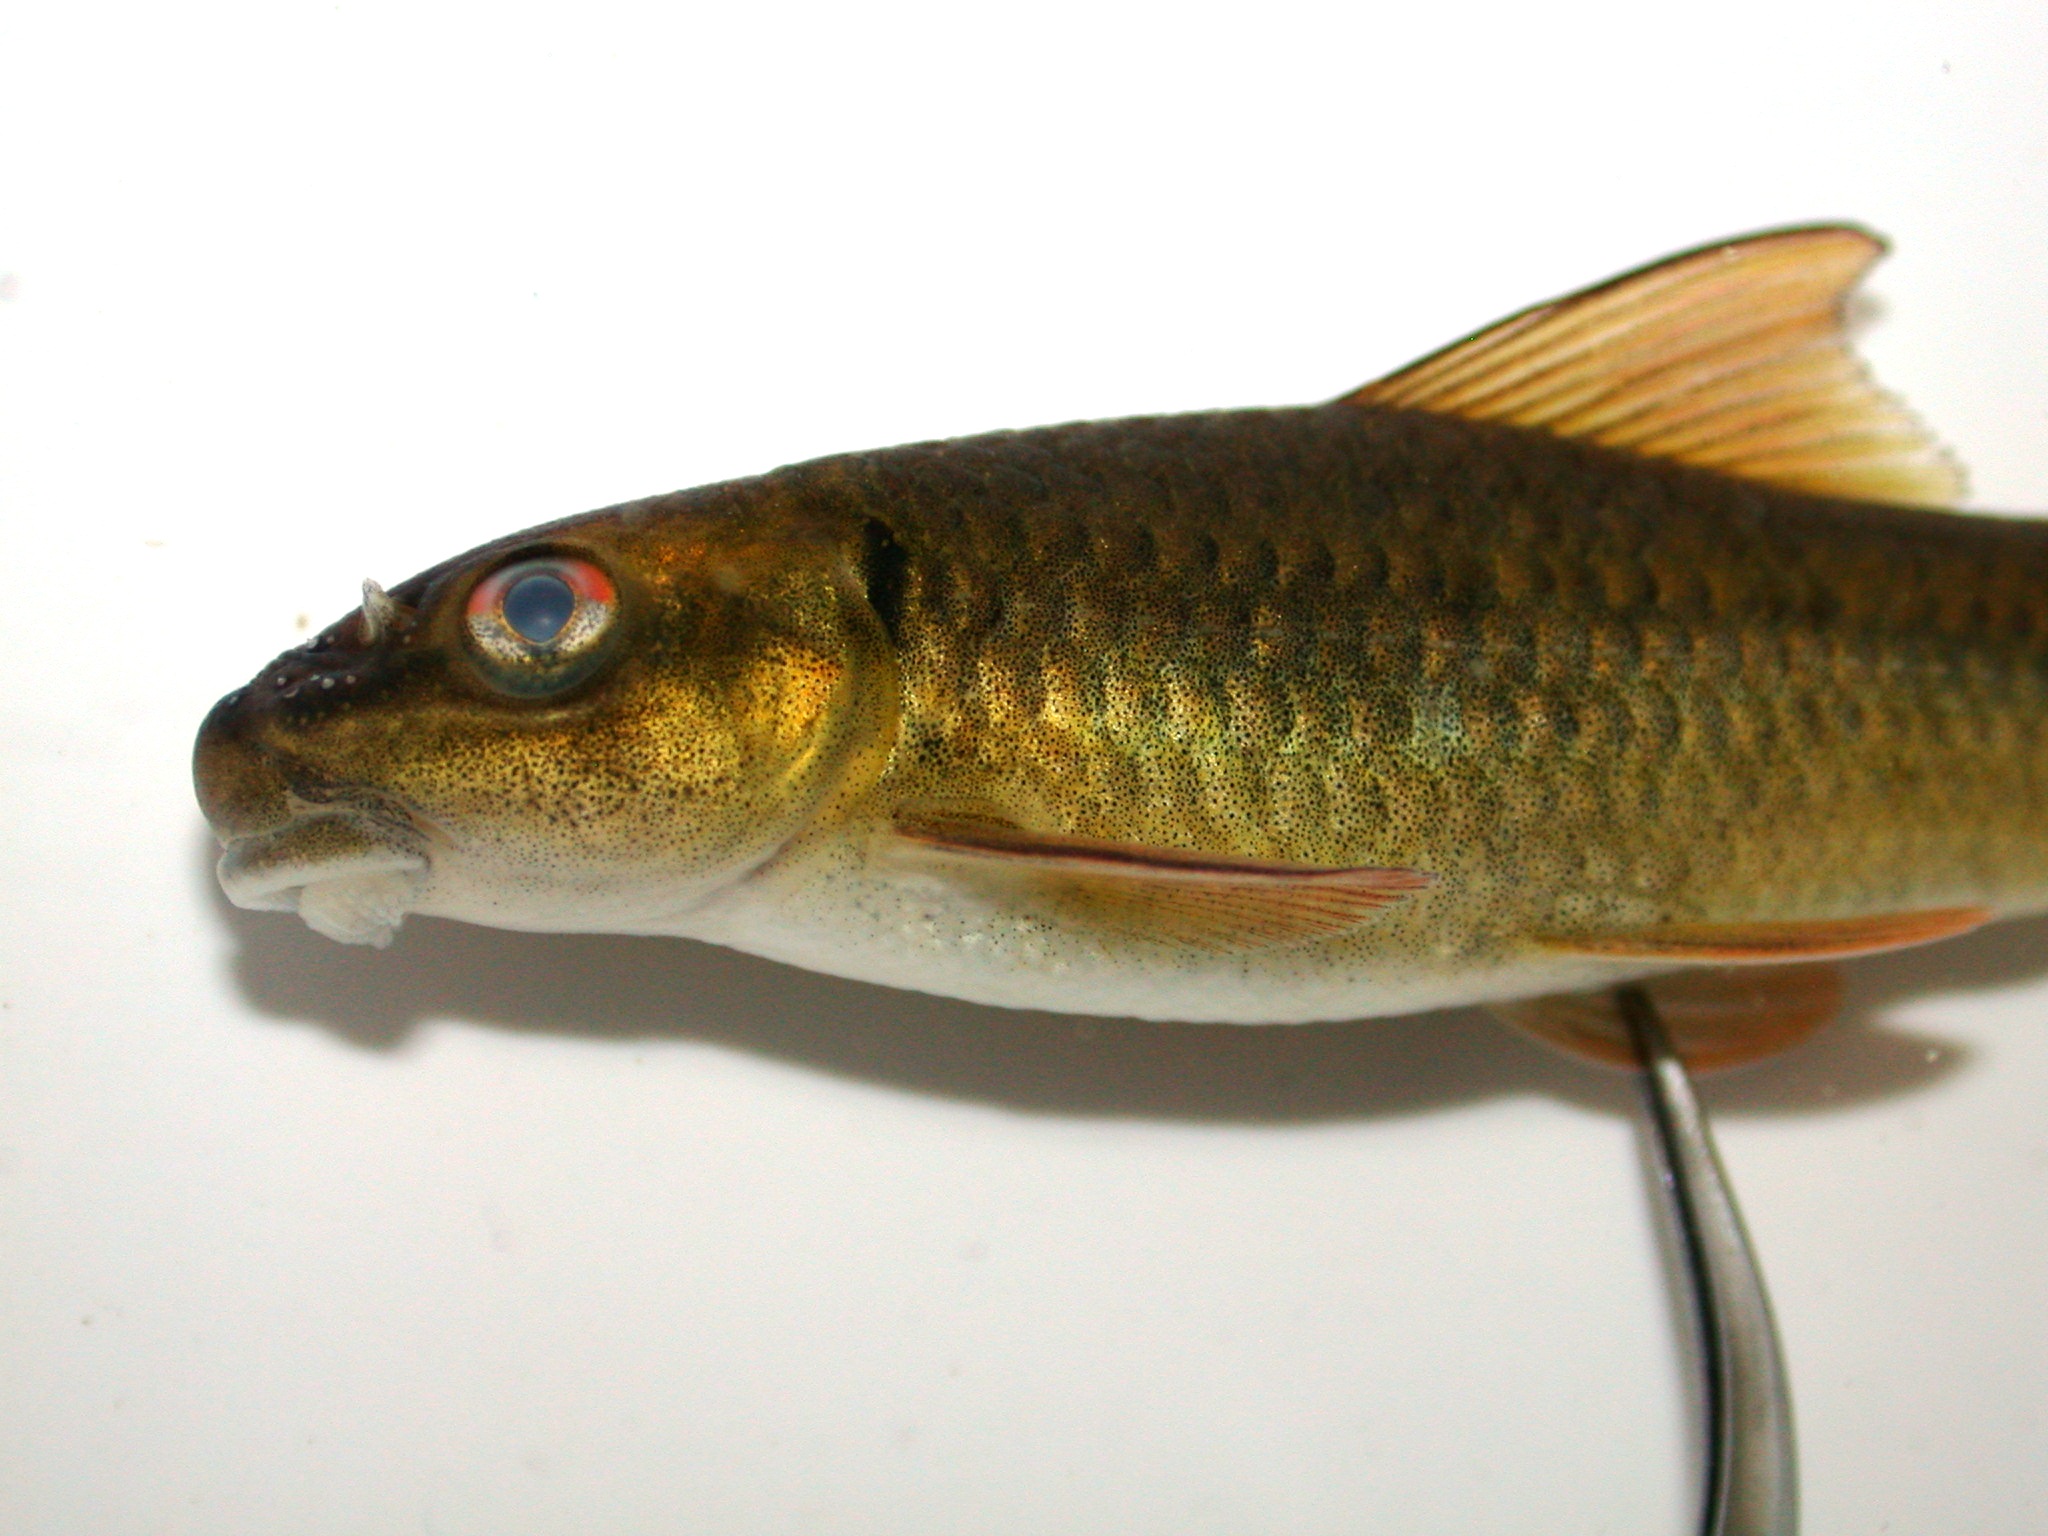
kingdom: Animalia
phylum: Chordata
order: Cypriniformes
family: Cyprinidae
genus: Labeo
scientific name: Labeo cylindricus
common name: Redeye labeo
